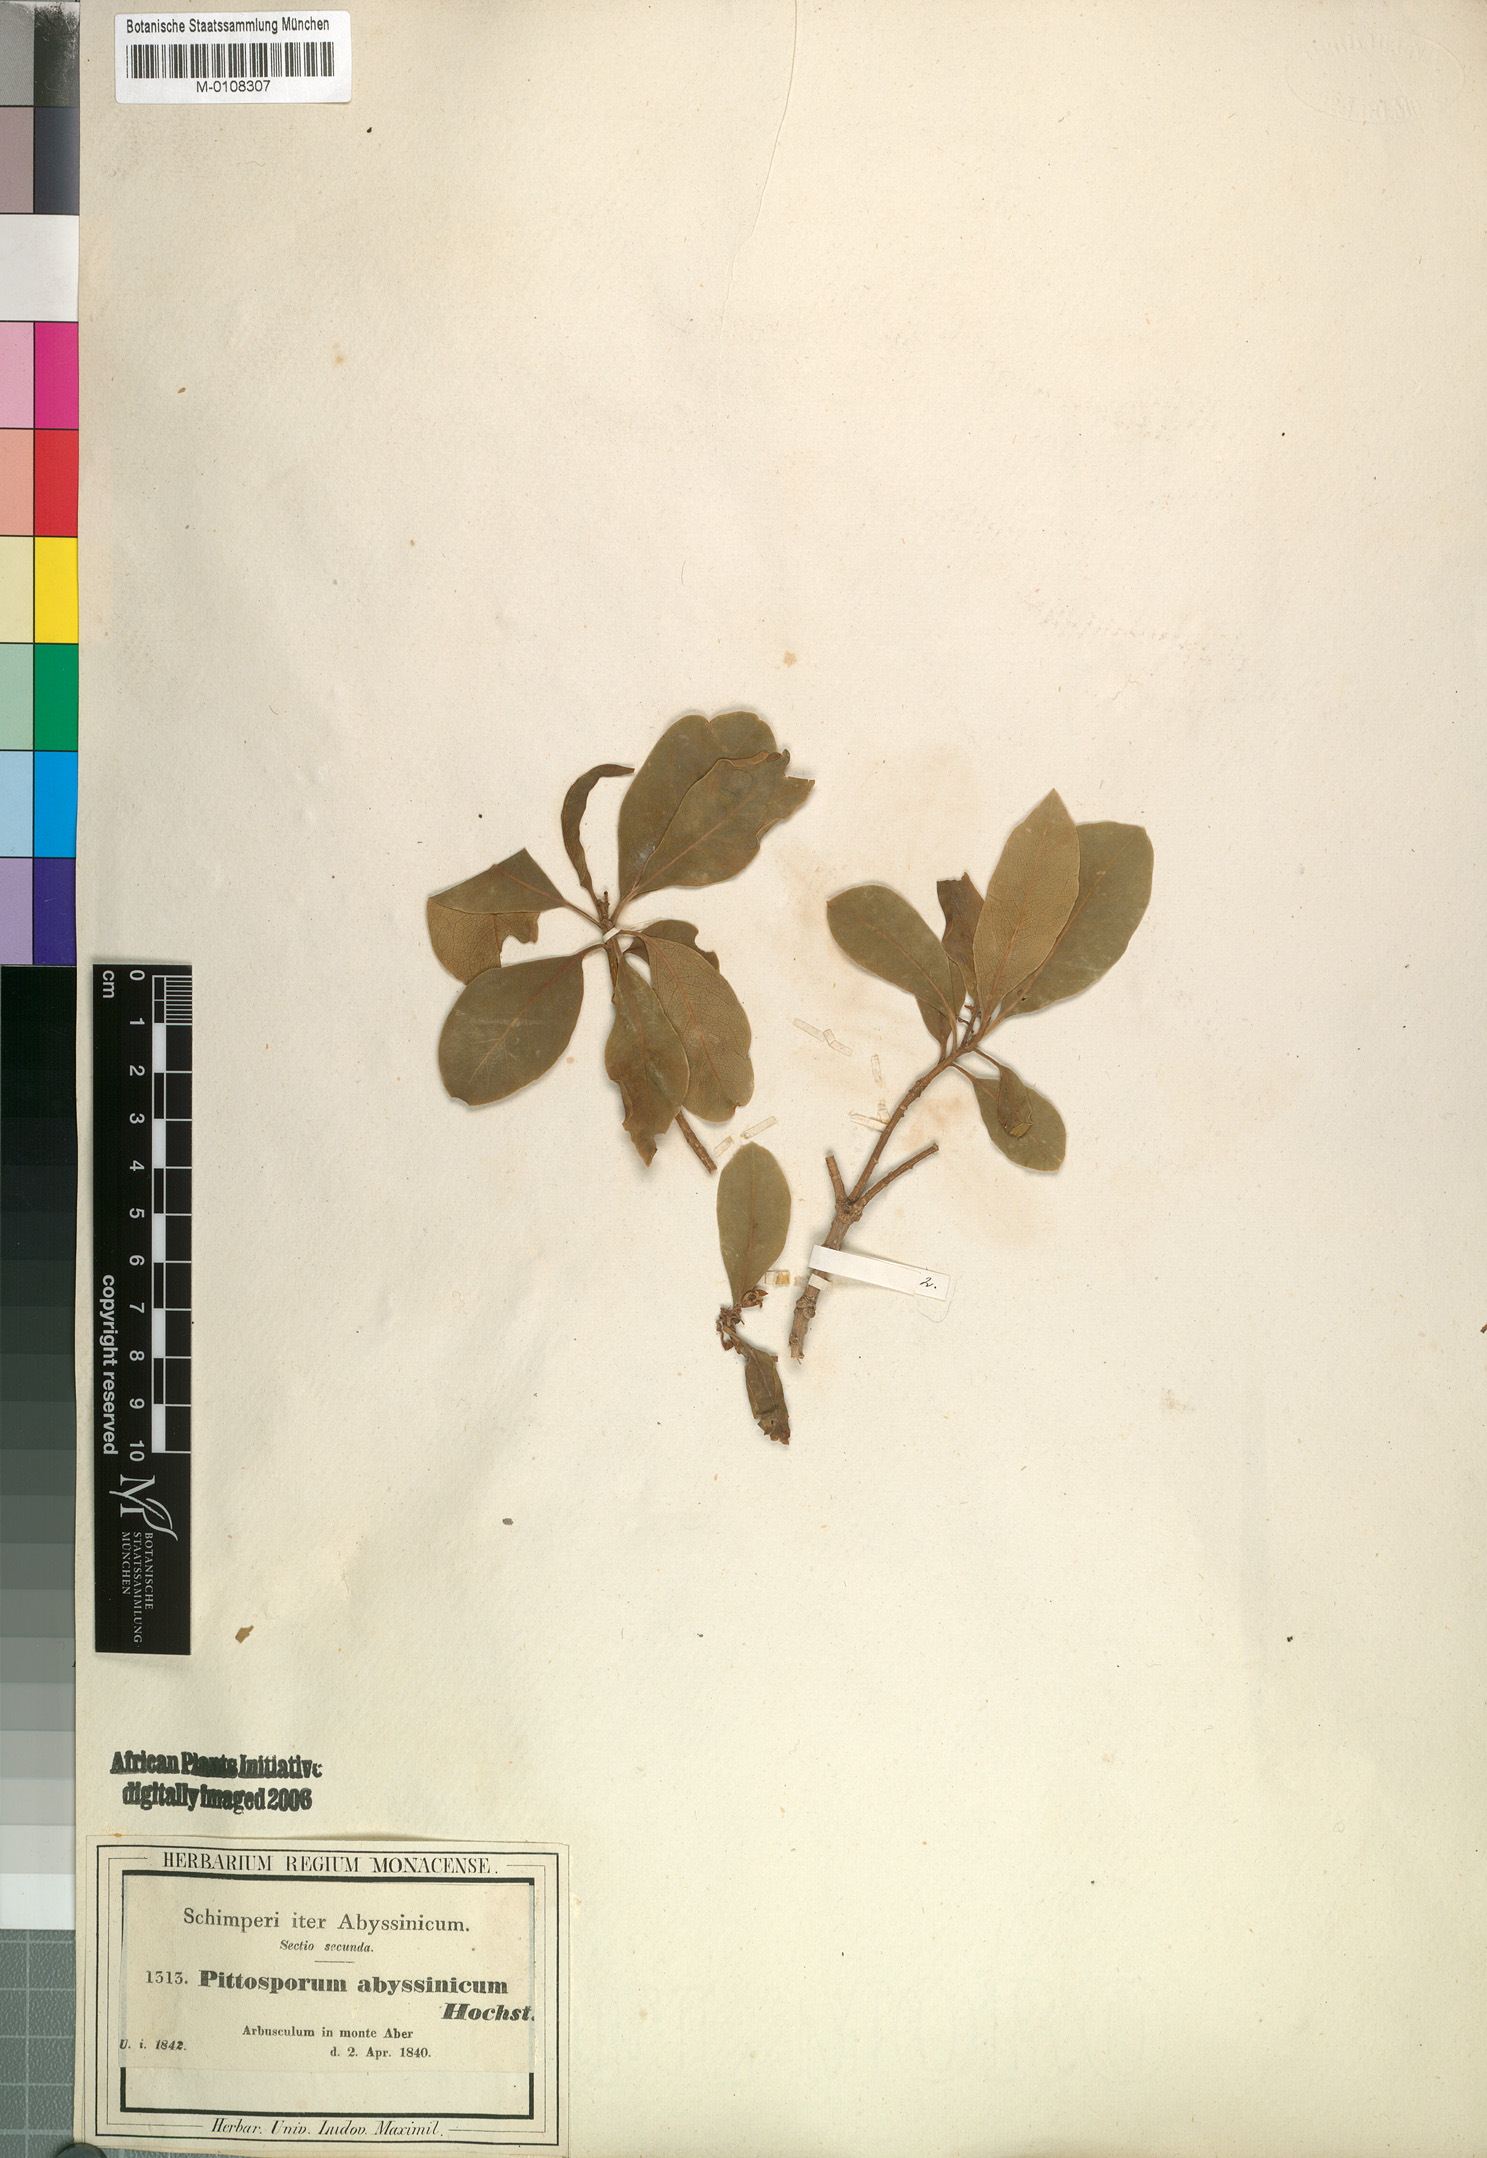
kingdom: Plantae
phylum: Tracheophyta
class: Magnoliopsida
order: Apiales
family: Pittosporaceae
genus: Pittosporum
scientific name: Pittosporum abyssinicum
